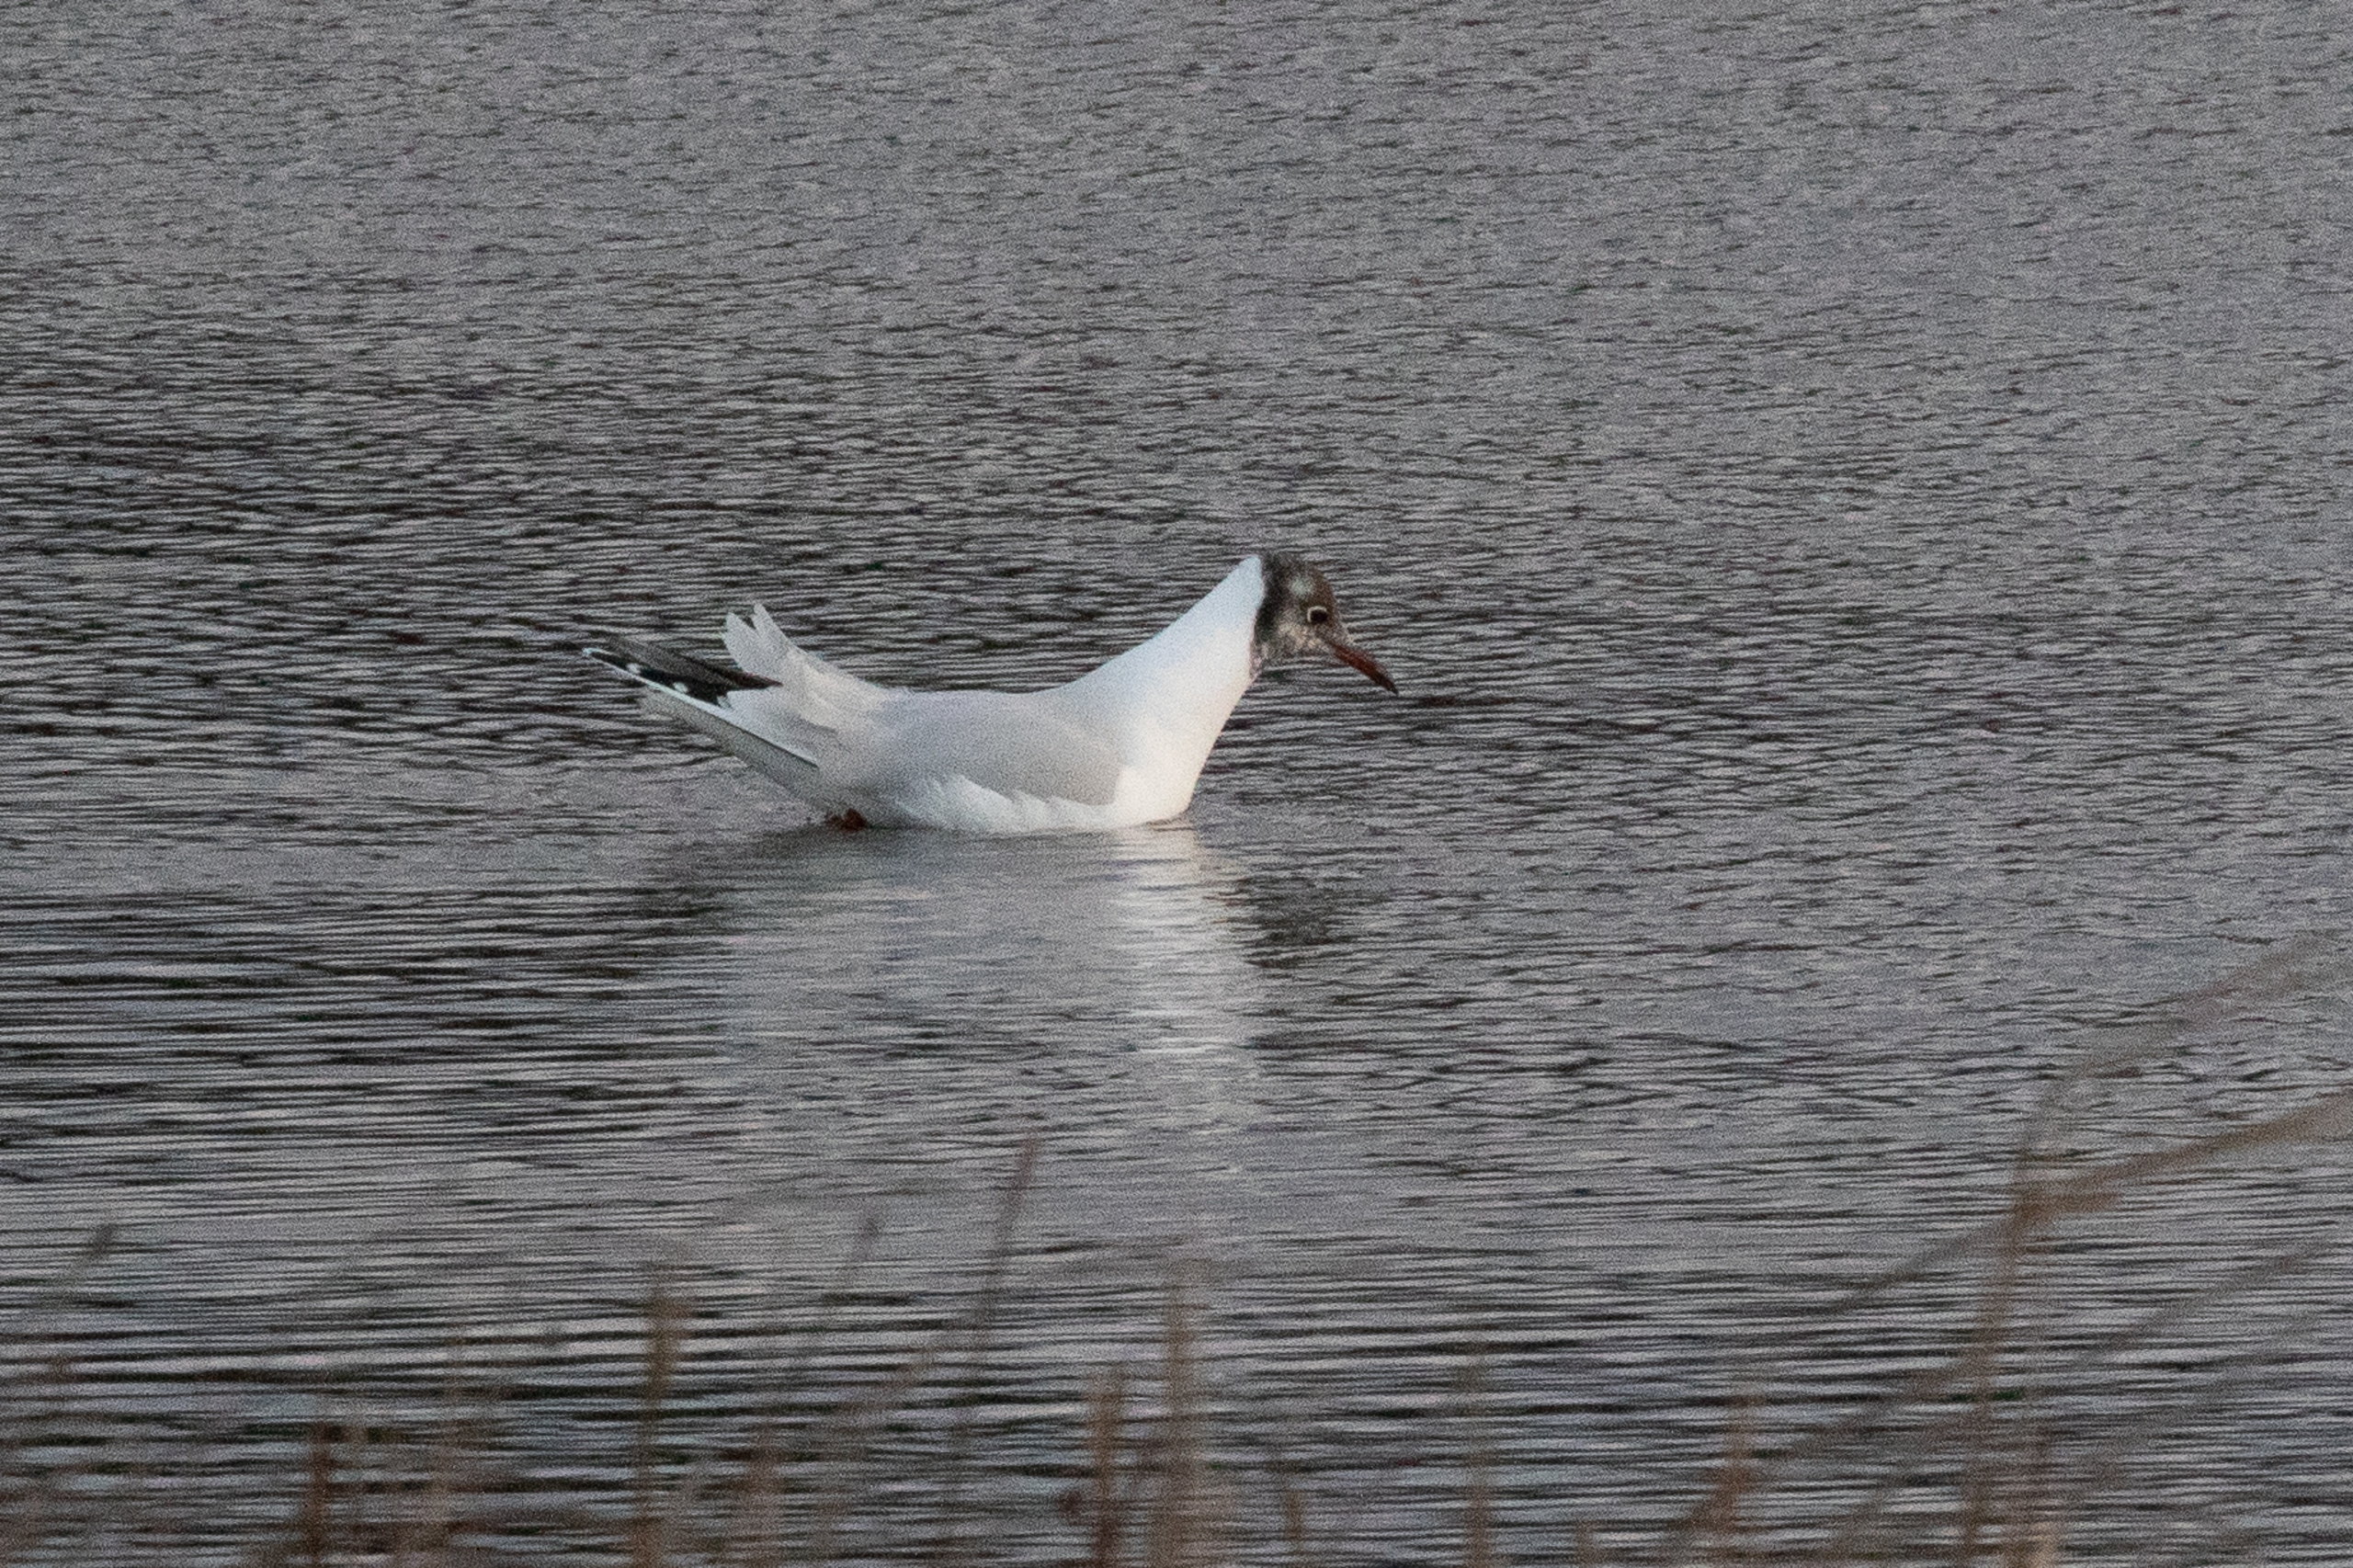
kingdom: Animalia
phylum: Chordata
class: Aves
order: Charadriiformes
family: Laridae
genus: Chroicocephalus
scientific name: Chroicocephalus ridibundus
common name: Hættemåge
